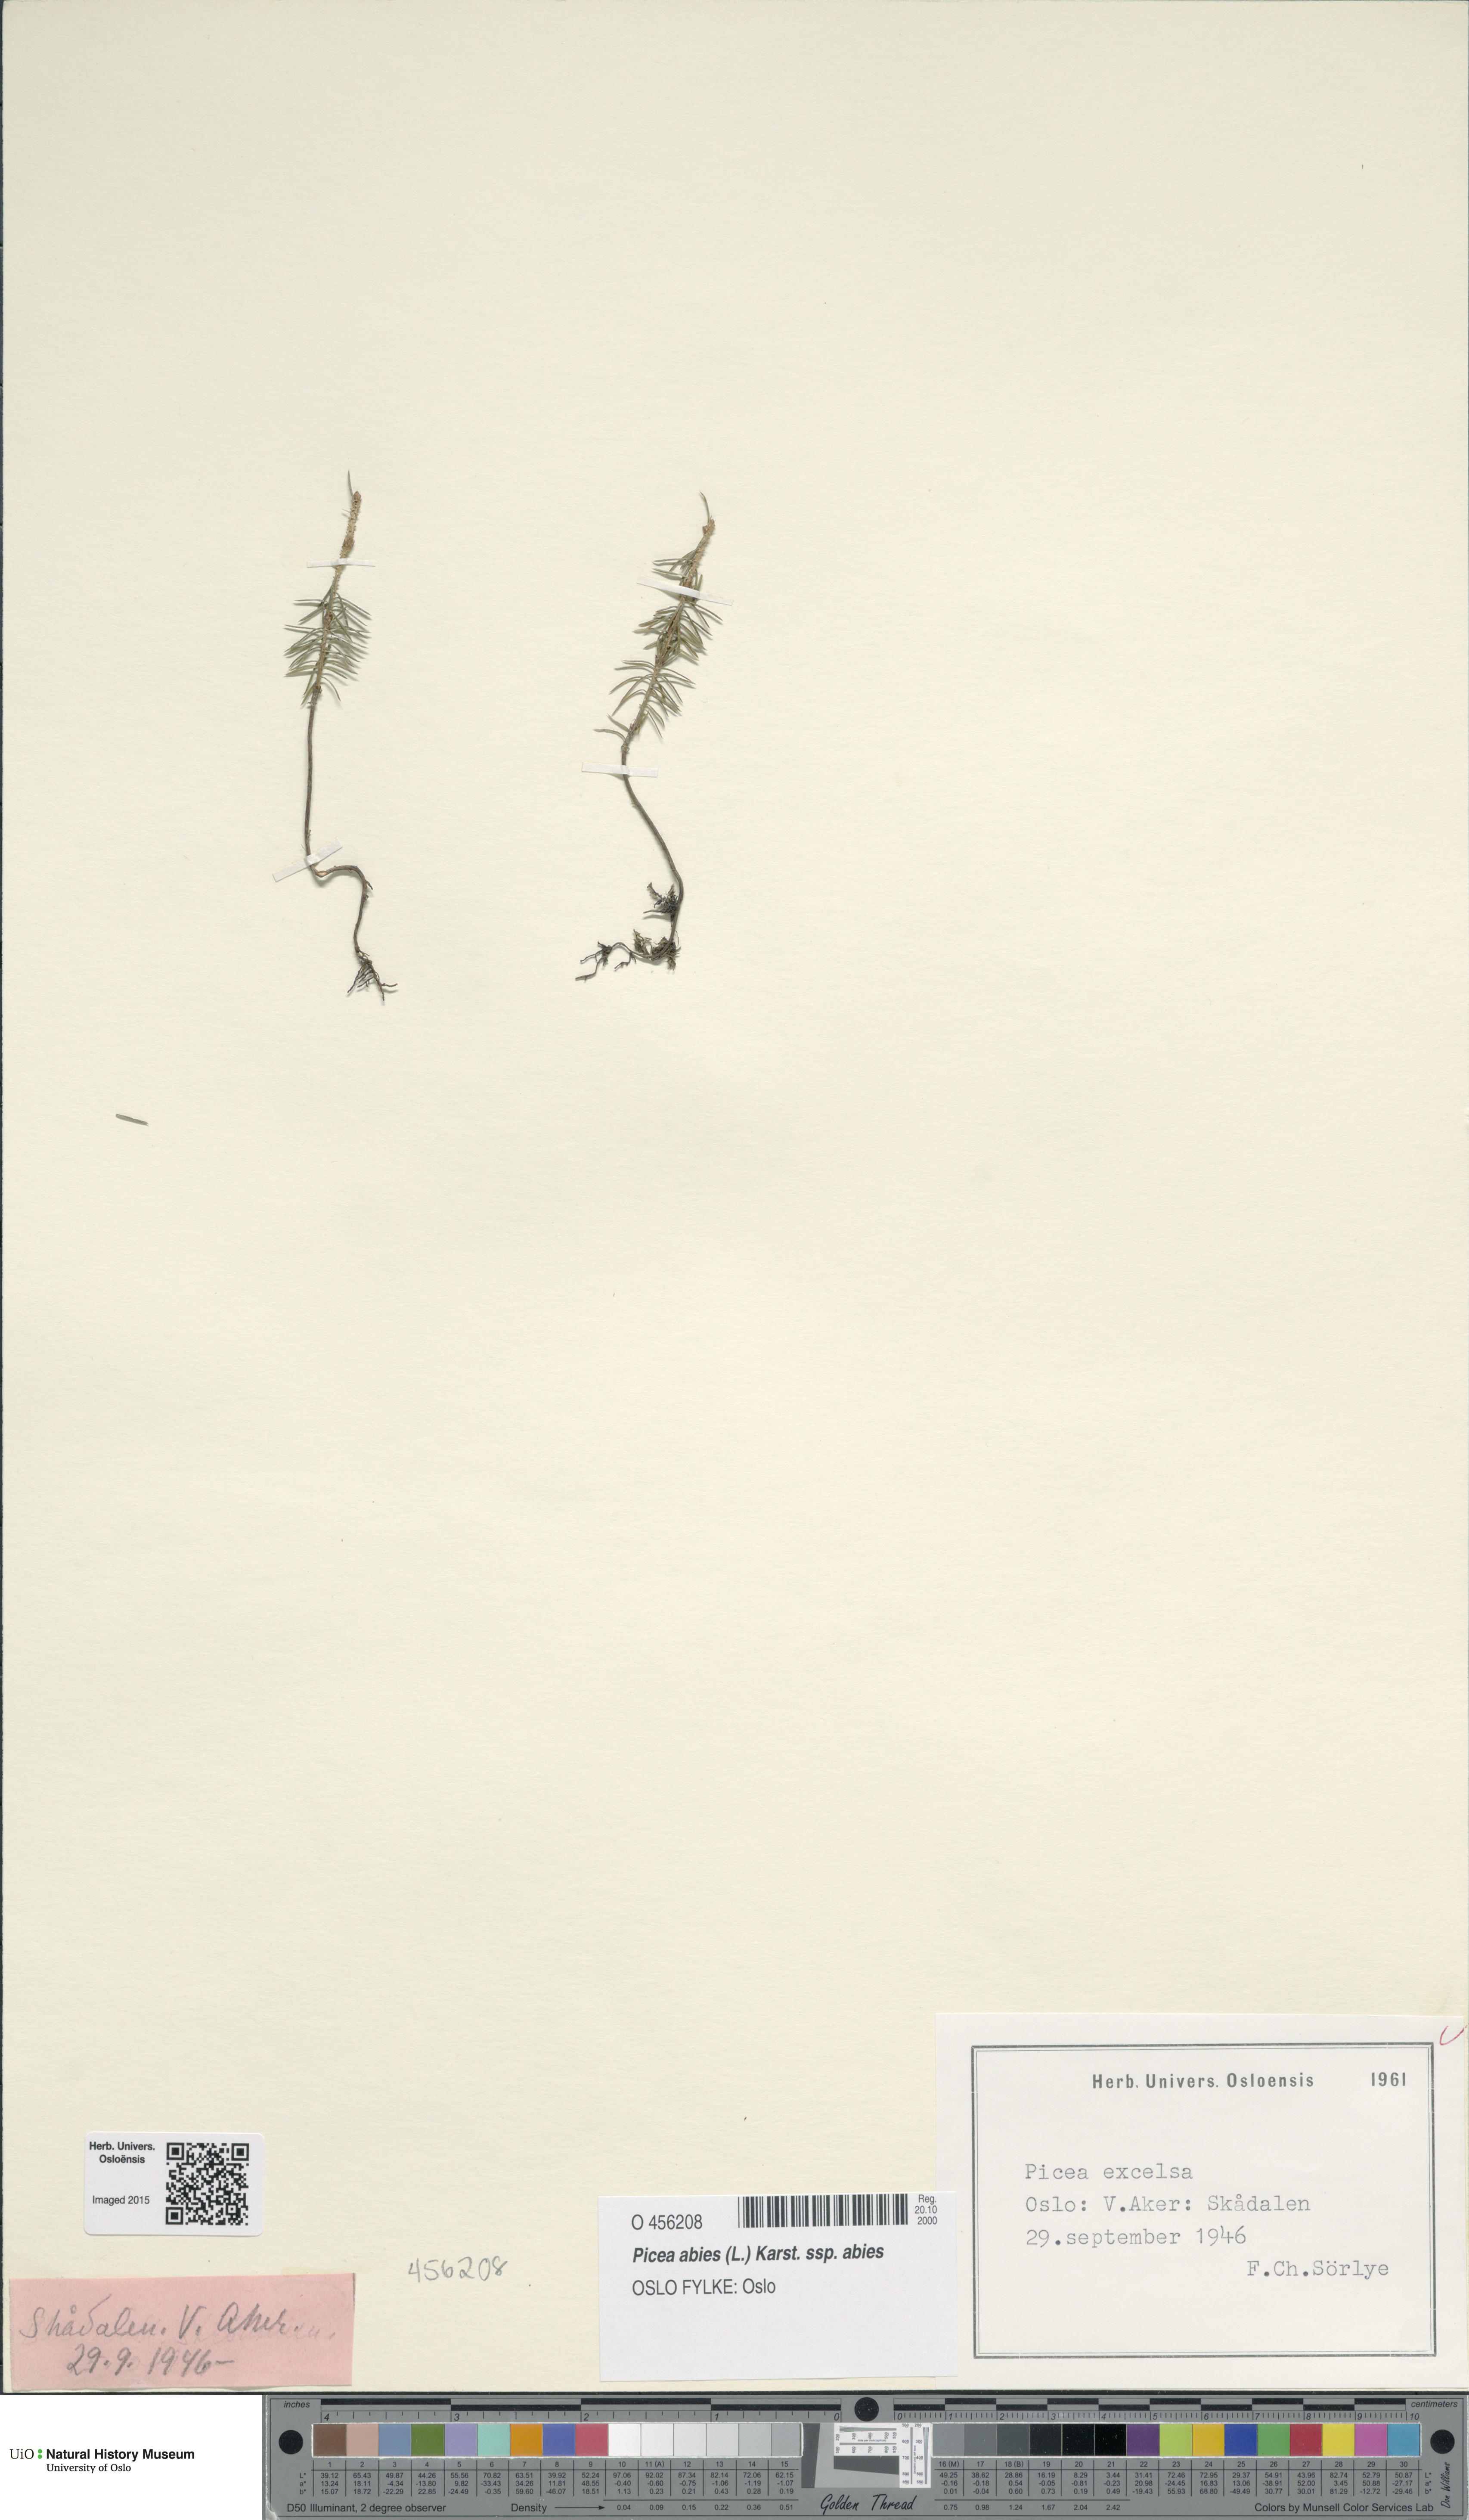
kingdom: Plantae
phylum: Tracheophyta
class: Pinopsida
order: Pinales
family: Pinaceae
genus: Picea
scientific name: Picea abies
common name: Norway spruce
